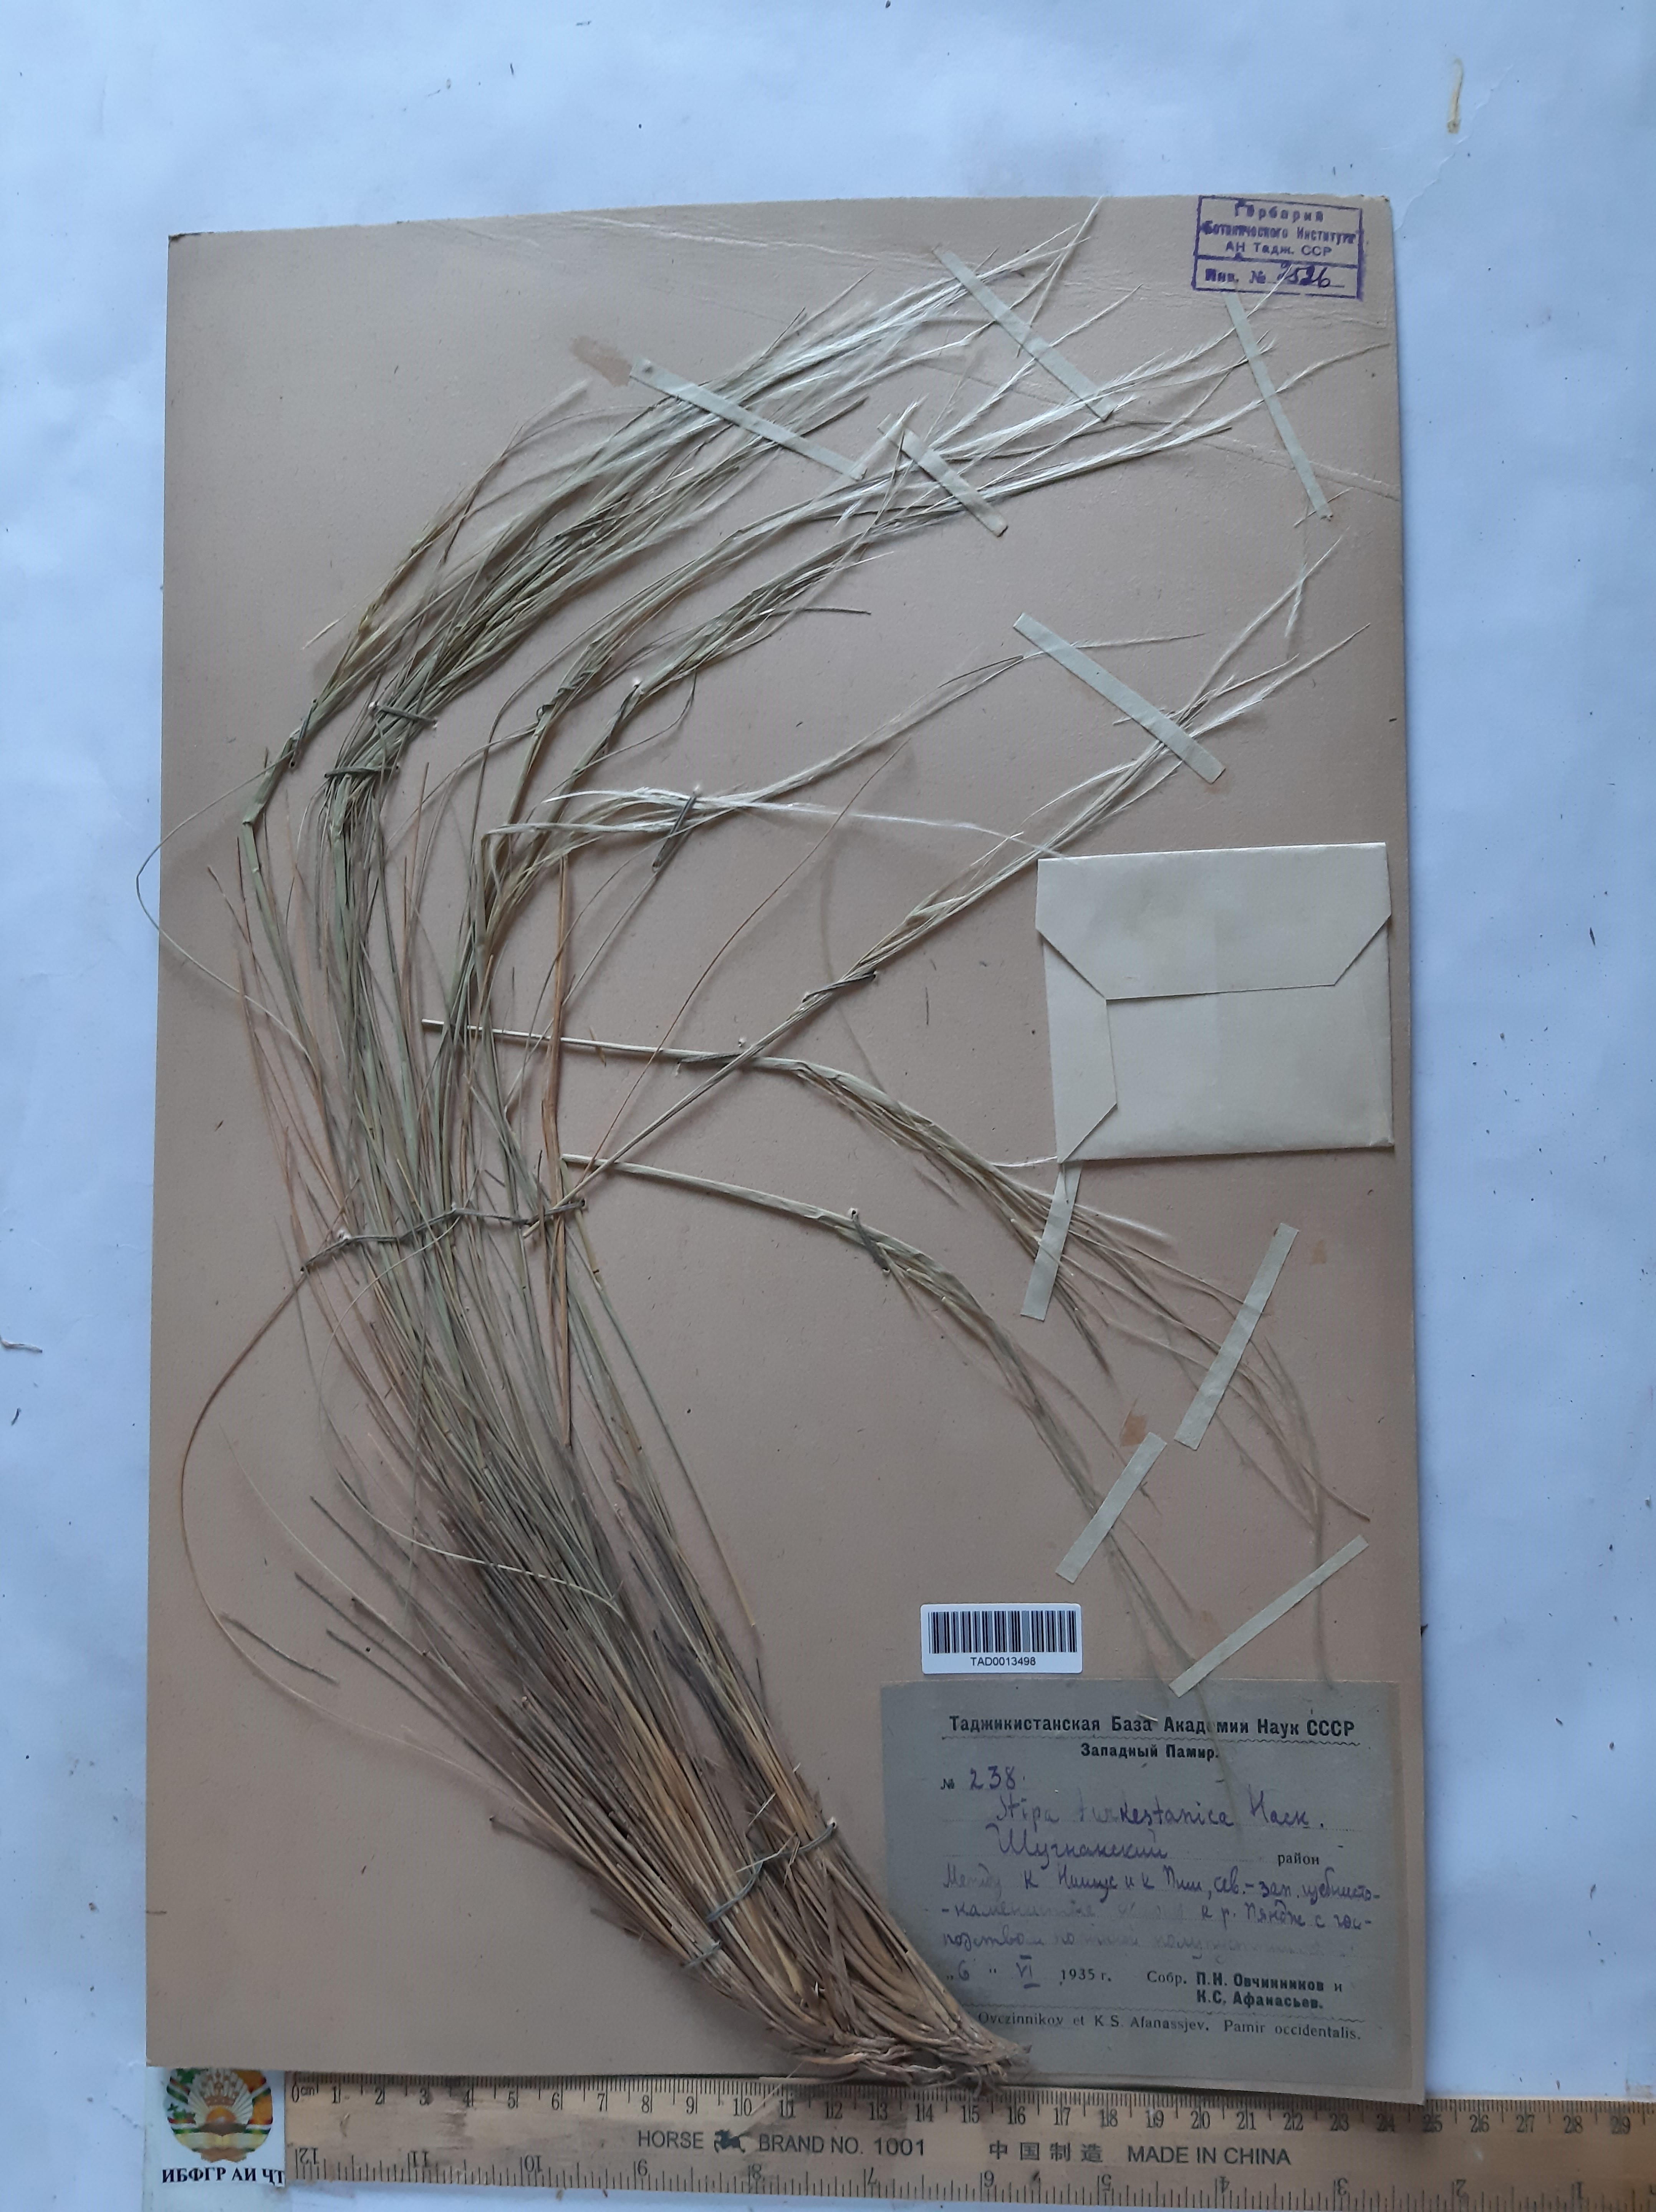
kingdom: Plantae
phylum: Tracheophyta
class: Liliopsida
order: Poales
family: Poaceae
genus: Stipa
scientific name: Stipa turkestanica
